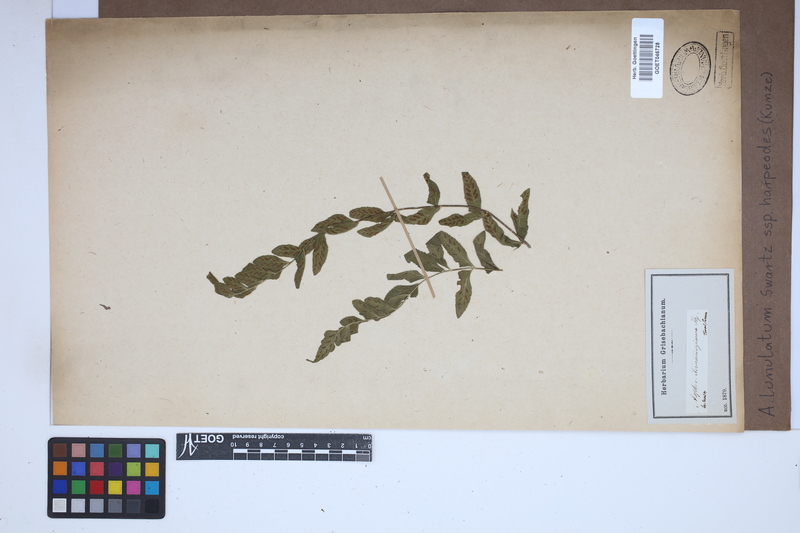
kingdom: Plantae
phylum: Tracheophyta
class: Polypodiopsida
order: Polypodiales
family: Aspleniaceae
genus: Asplenium
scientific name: Asplenium harpeodes
